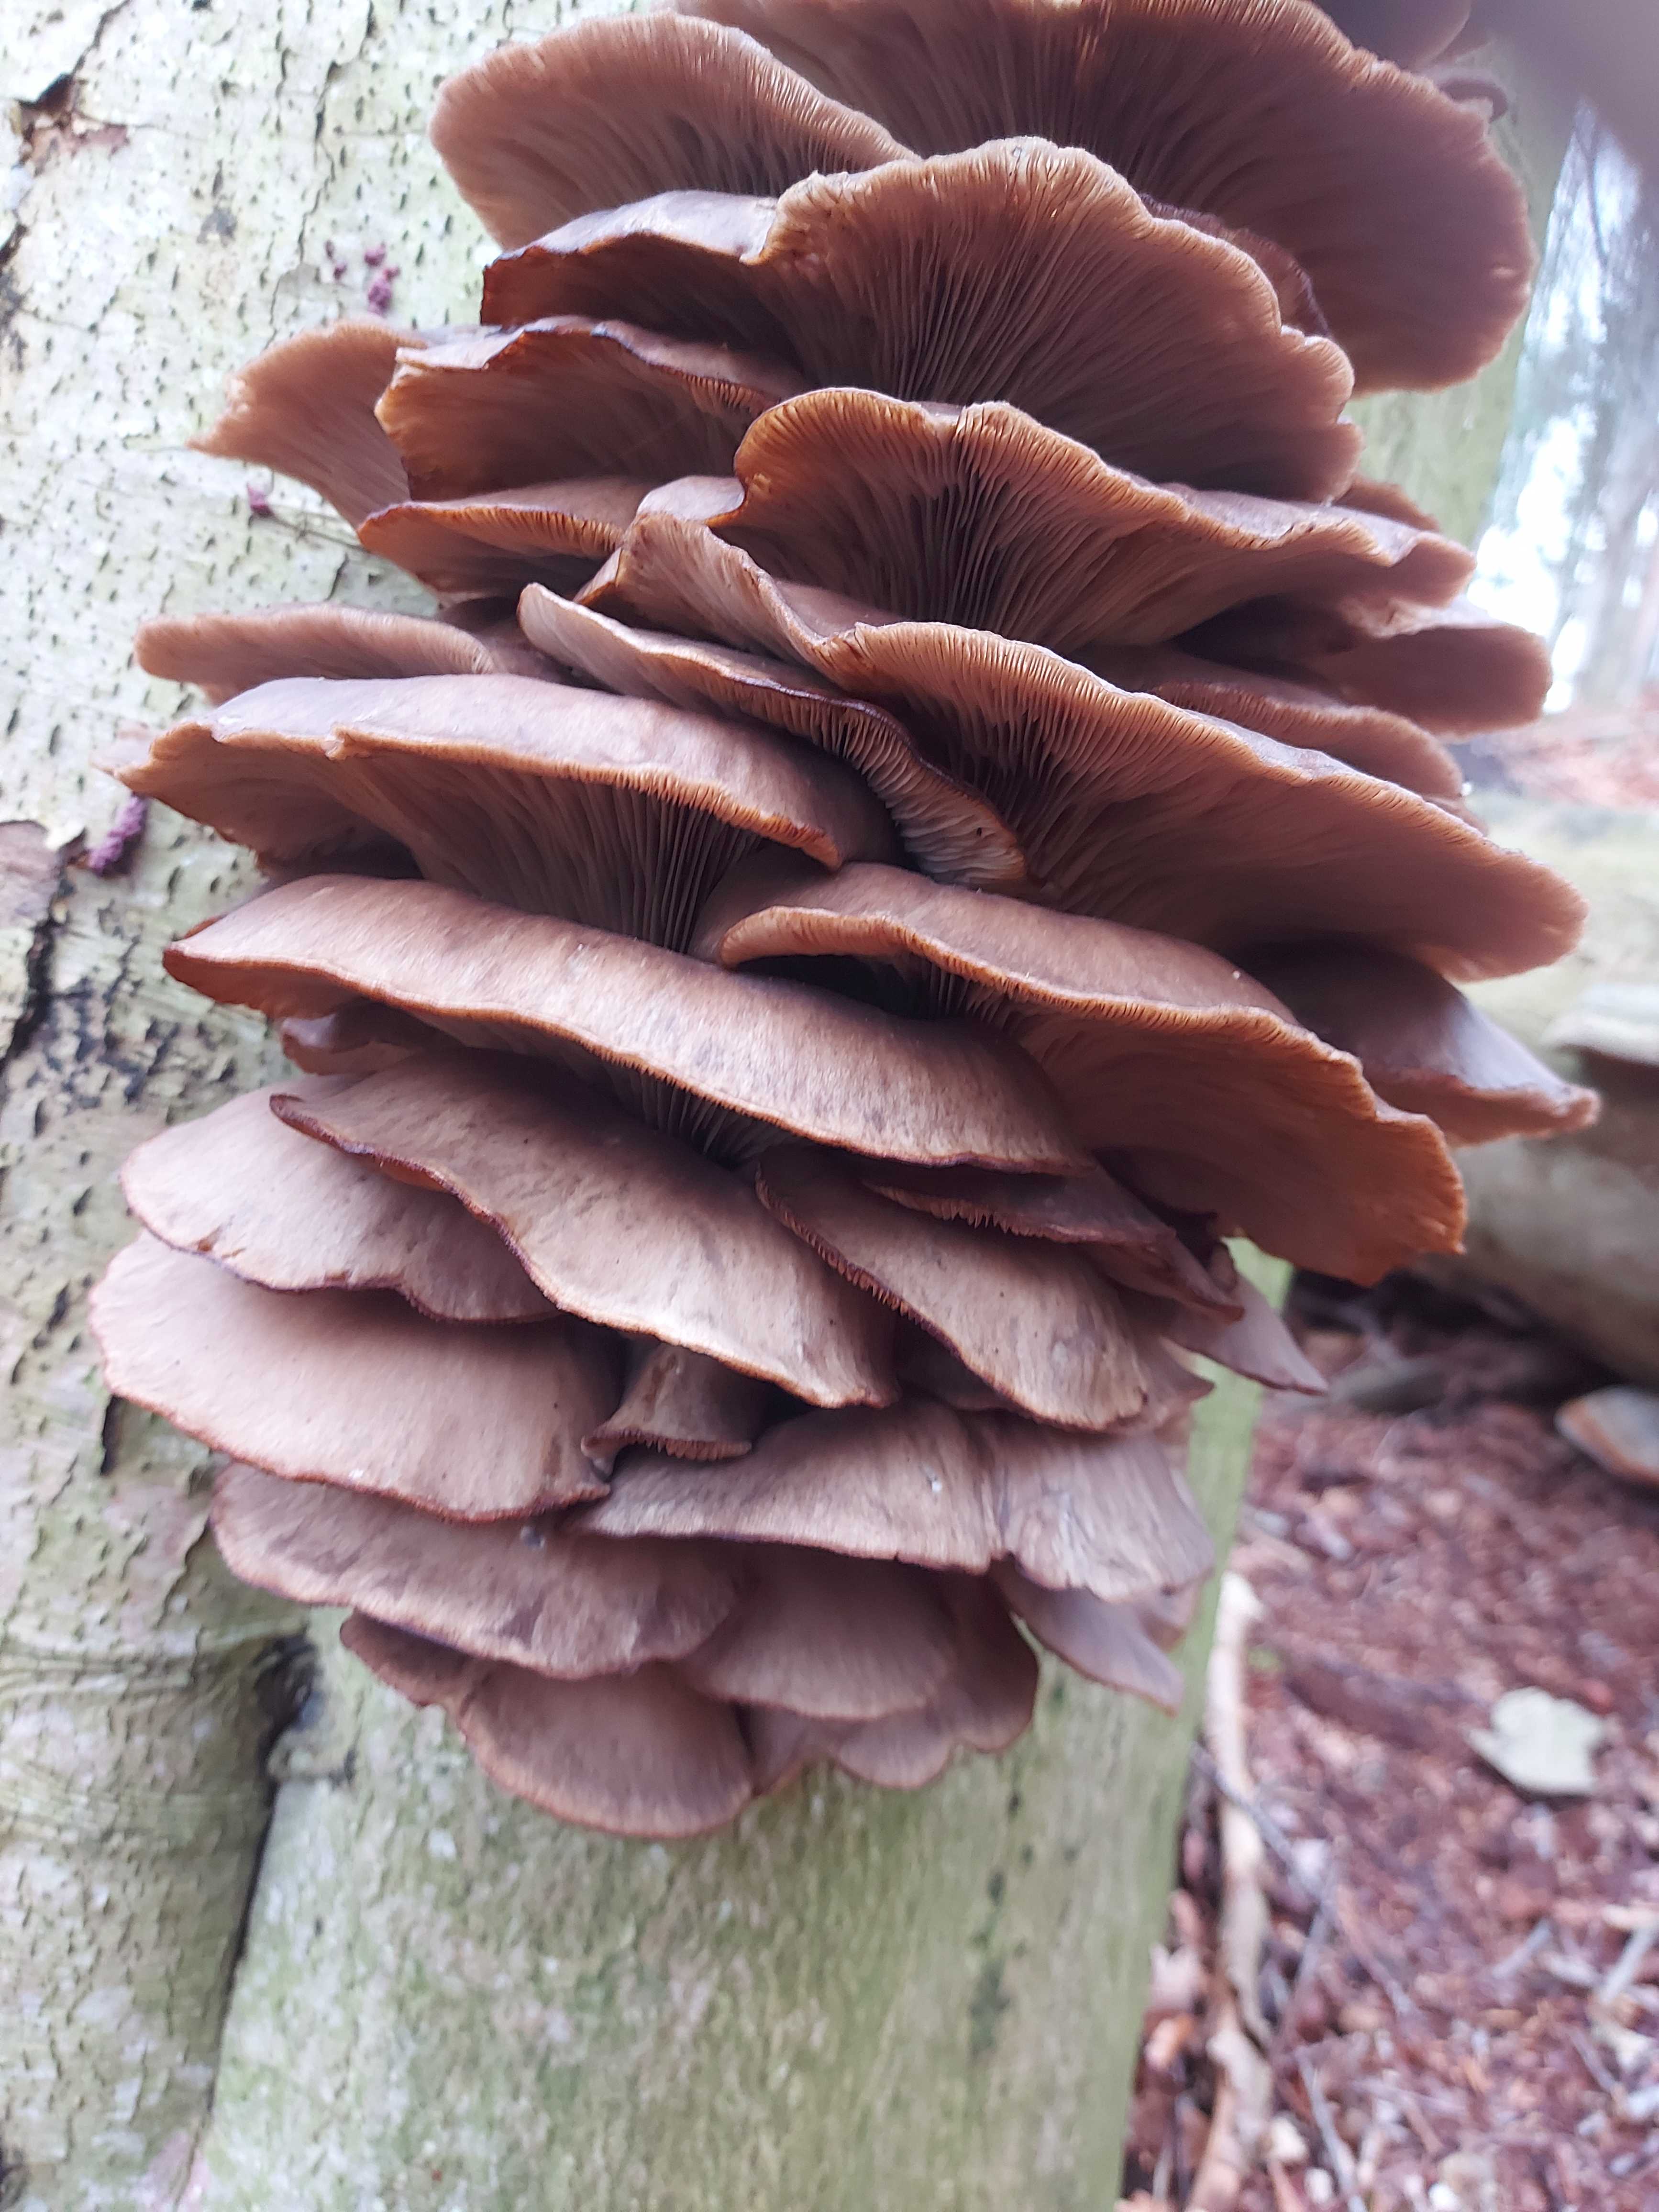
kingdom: Fungi
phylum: Basidiomycota
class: Agaricomycetes
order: Agaricales
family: Pleurotaceae
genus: Pleurotus
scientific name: Pleurotus ostreatus
